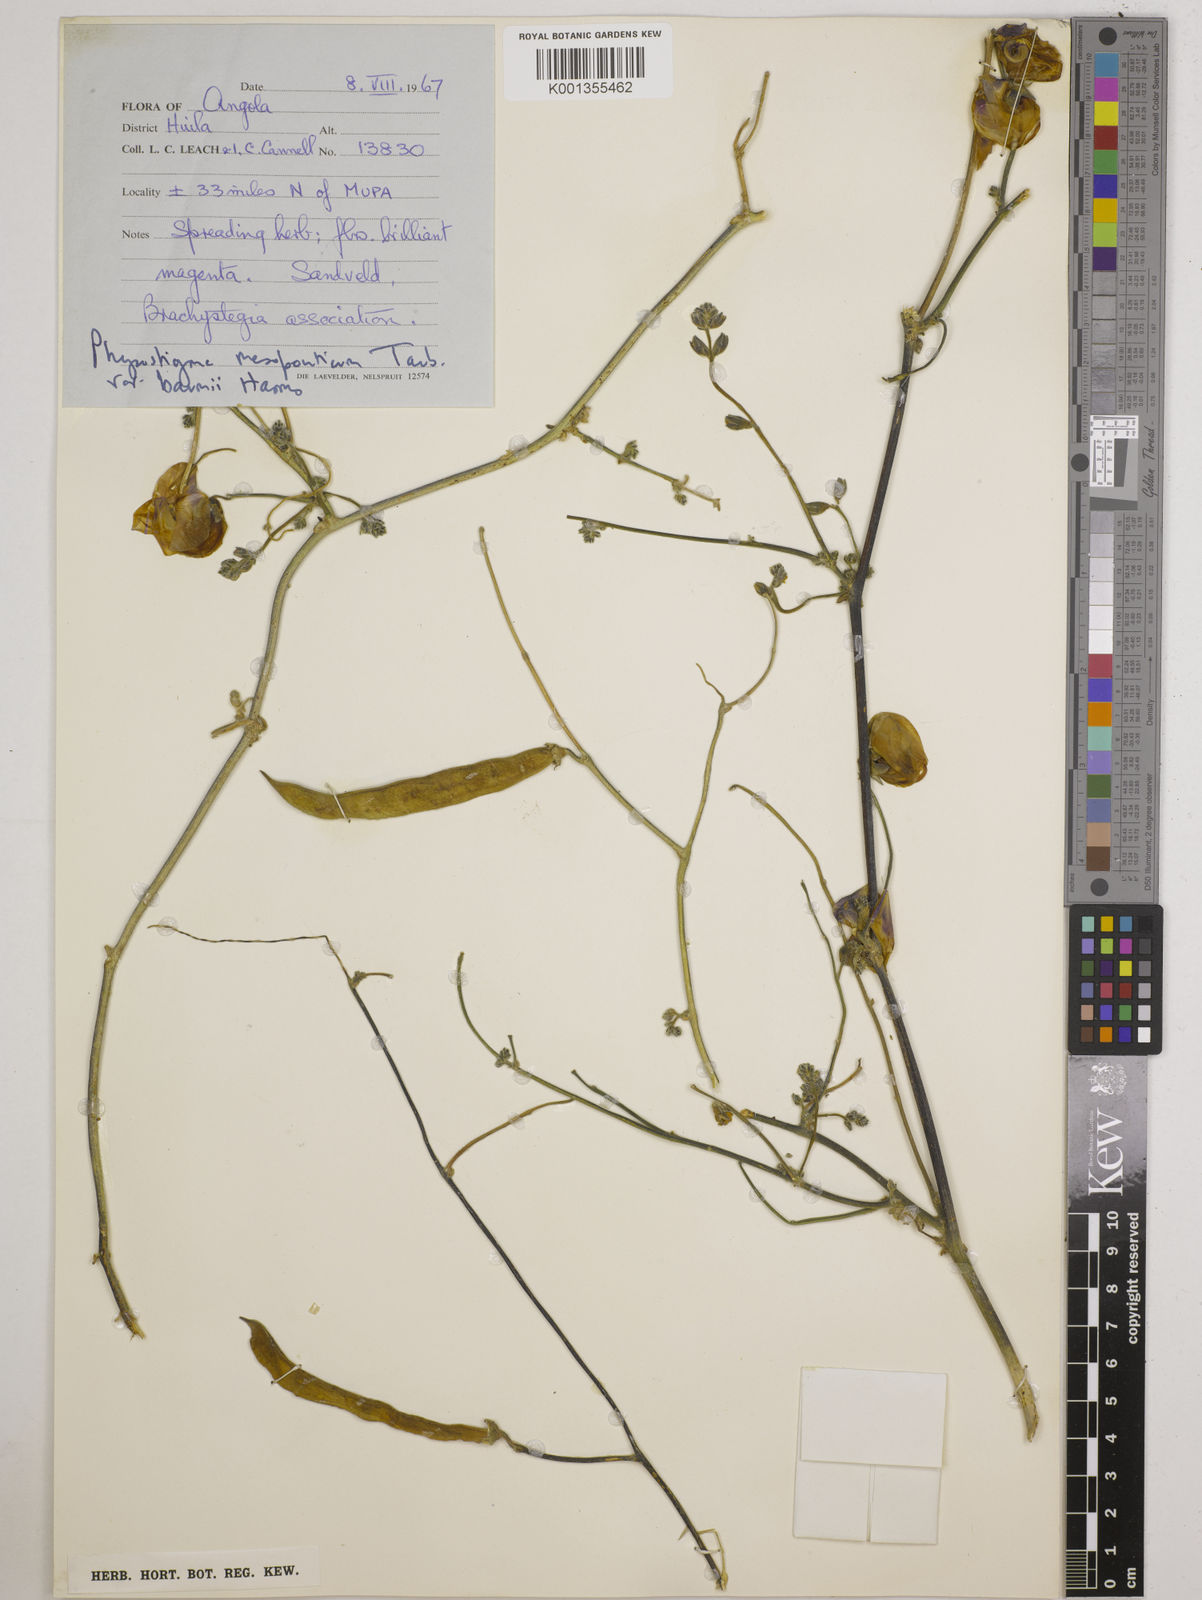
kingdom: Plantae
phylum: Tracheophyta
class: Magnoliopsida
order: Fabales
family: Fabaceae
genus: Physostigma
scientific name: Physostigma
